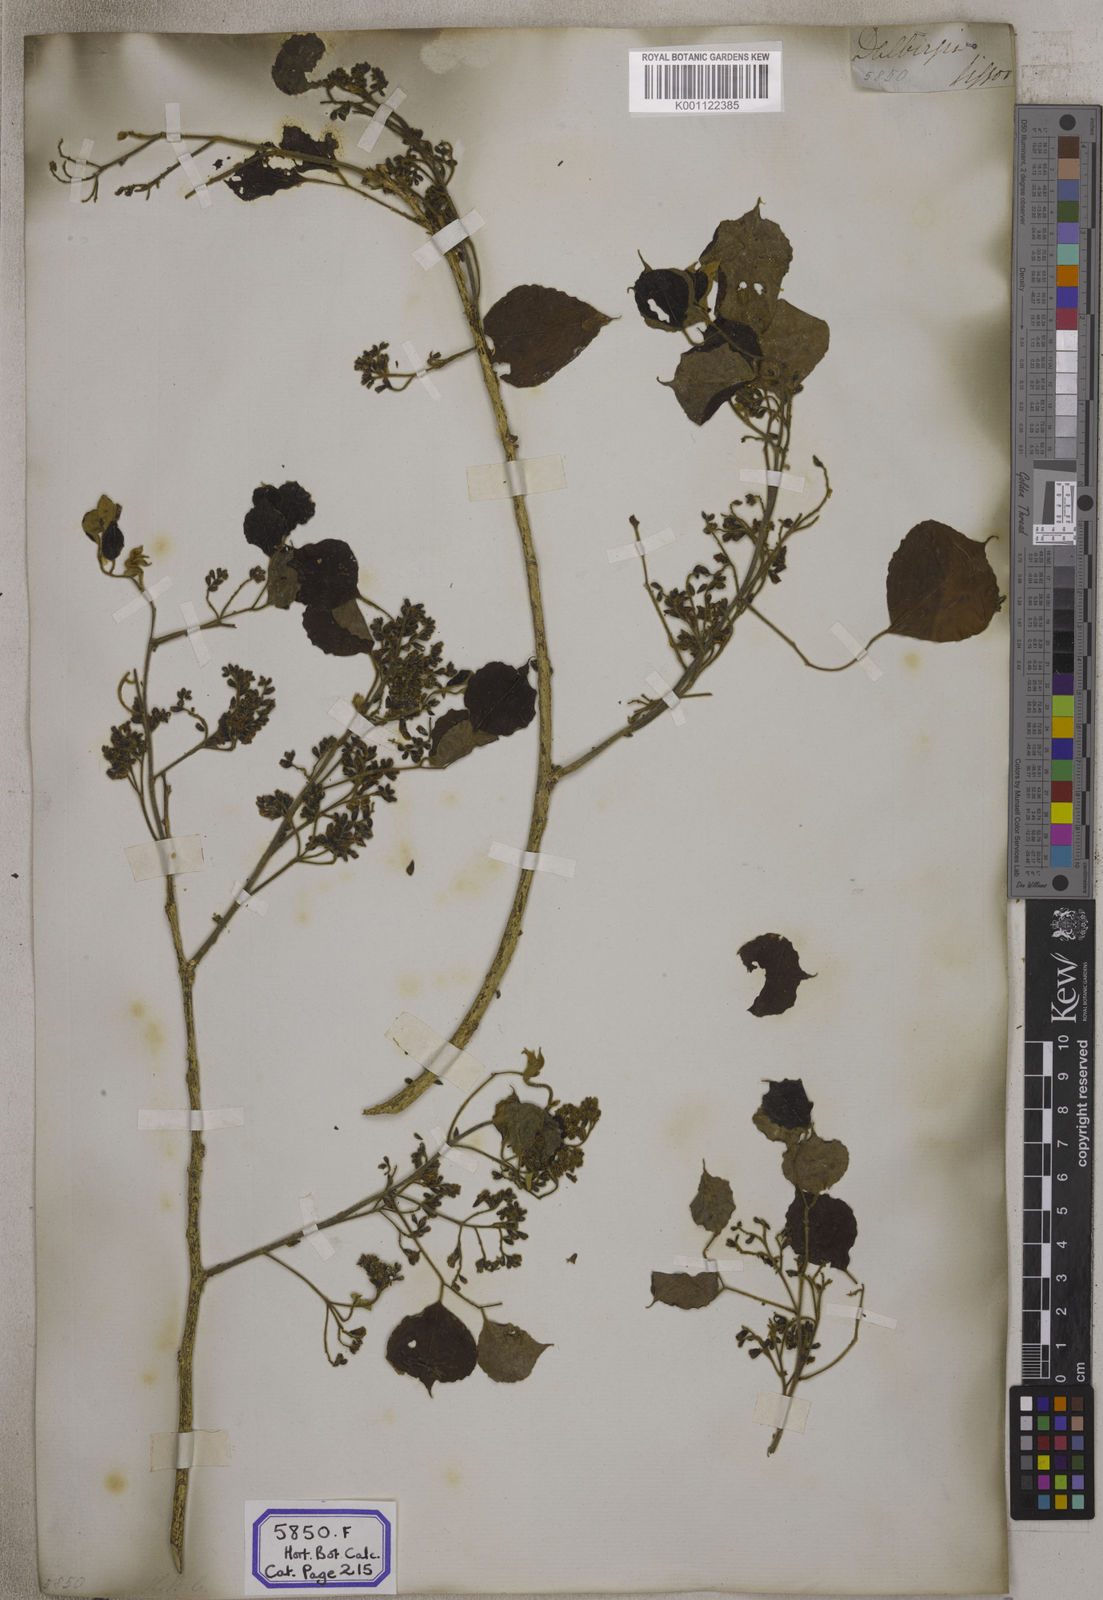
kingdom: Plantae
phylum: Tracheophyta
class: Magnoliopsida
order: Fabales
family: Fabaceae
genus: Dalbergia
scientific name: Dalbergia
